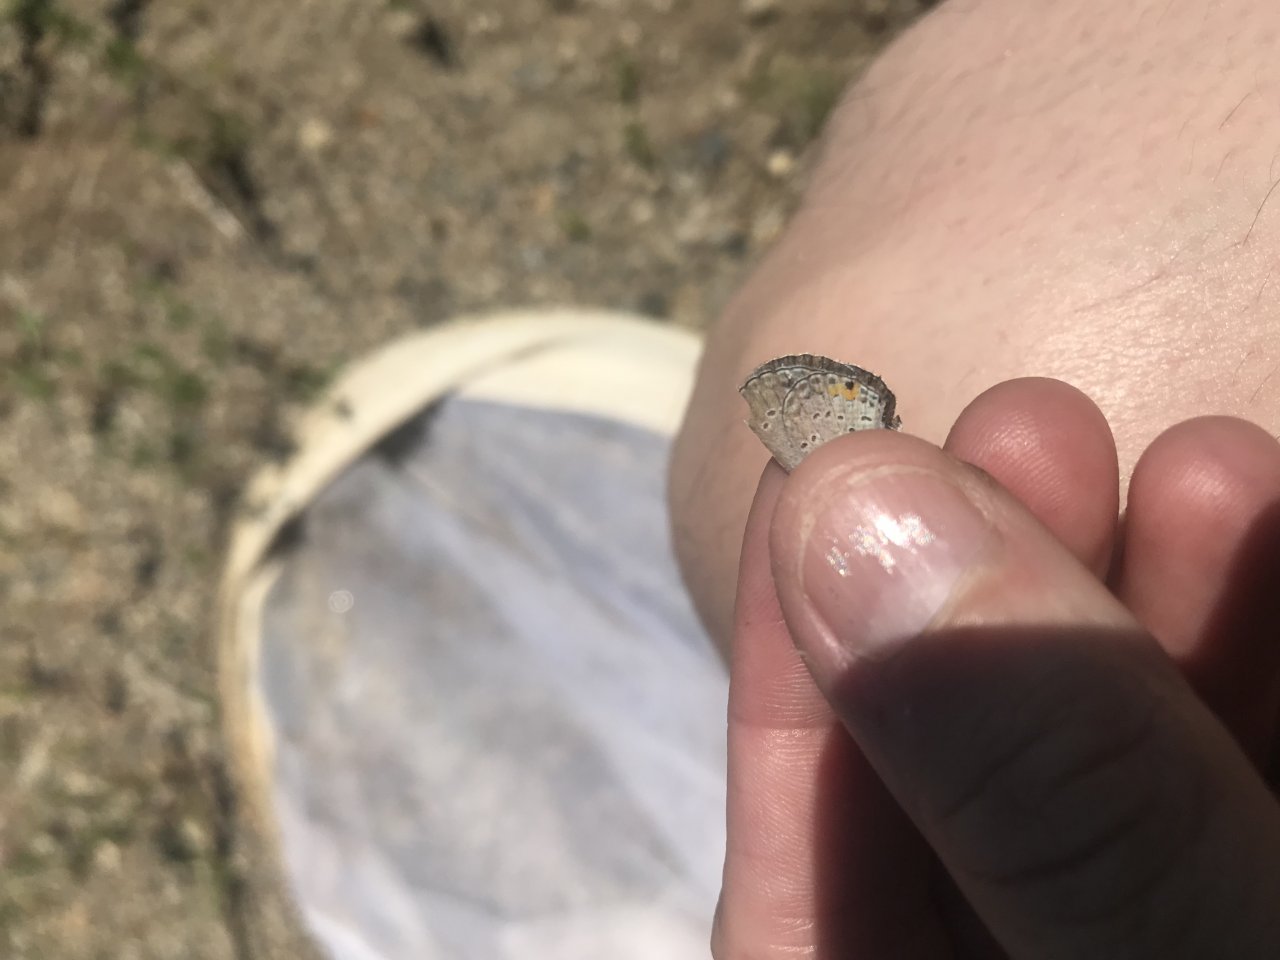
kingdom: Animalia
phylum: Arthropoda
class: Insecta
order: Lepidoptera
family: Lycaenidae
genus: Elkalyce
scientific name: Elkalyce comyntas
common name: Eastern Tailed-Blue
